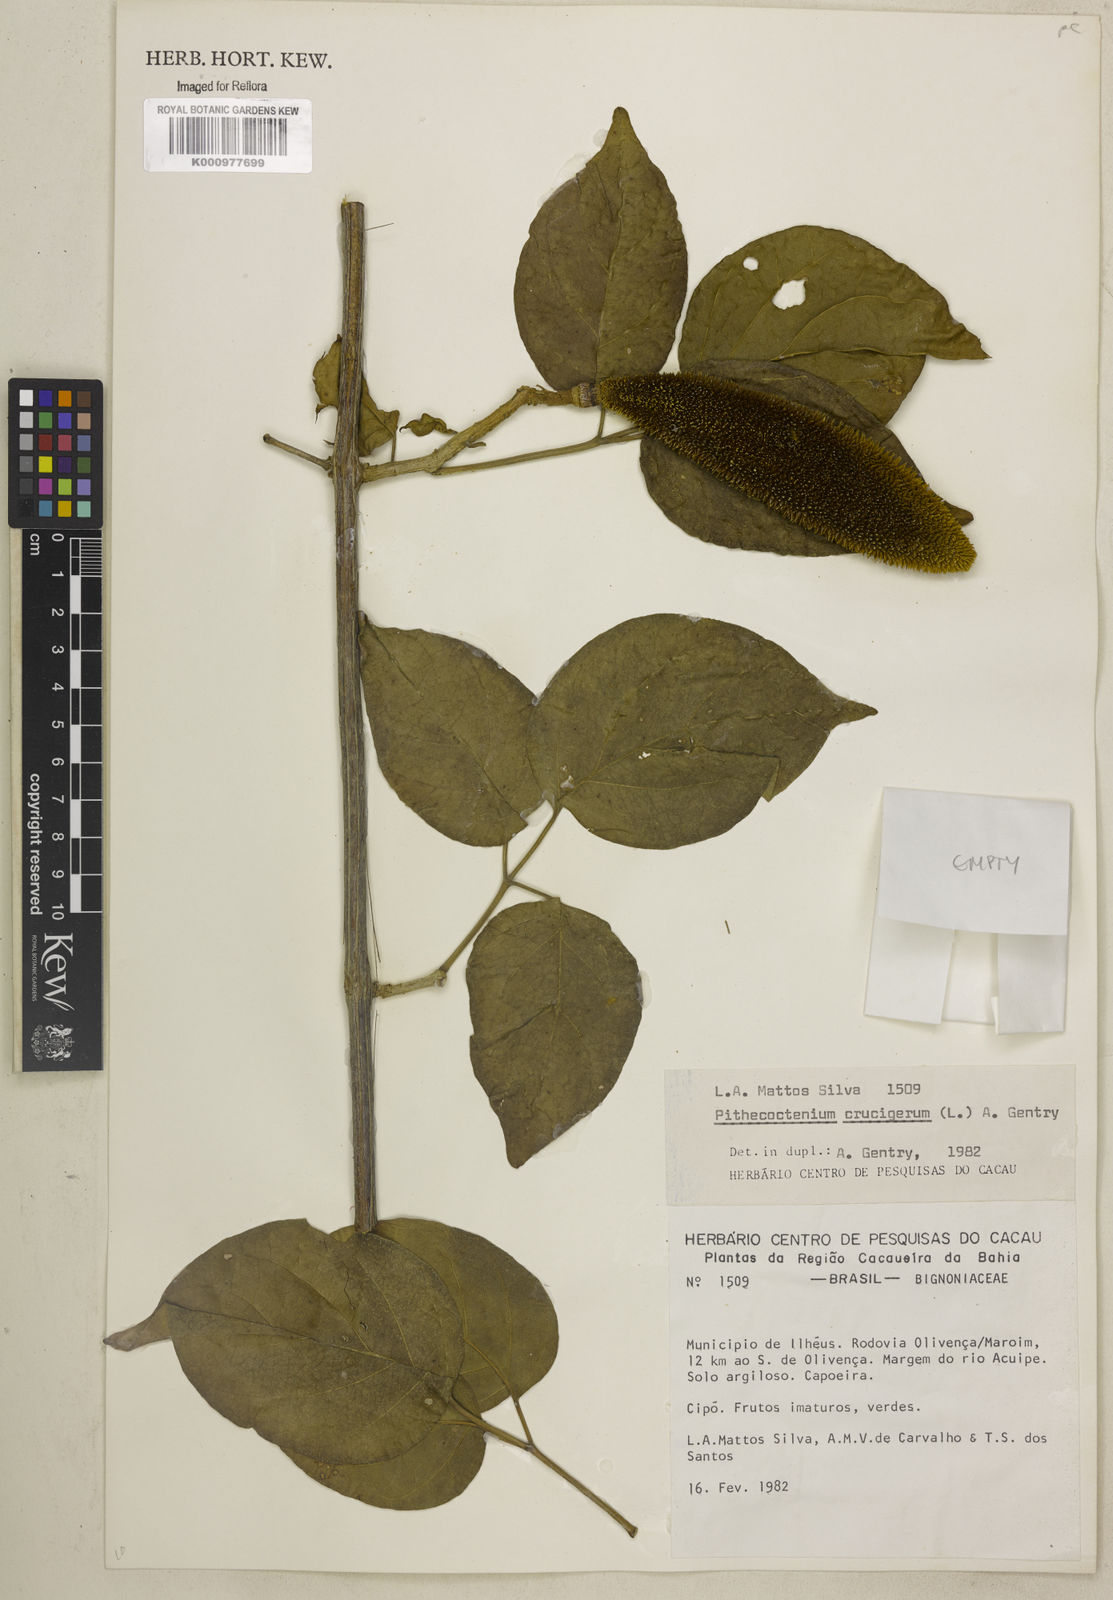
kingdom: Plantae
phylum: Tracheophyta
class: Magnoliopsida
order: Lamiales
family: Bignoniaceae
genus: Amphilophium
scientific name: Amphilophium crucigerum
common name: Monkey comb
